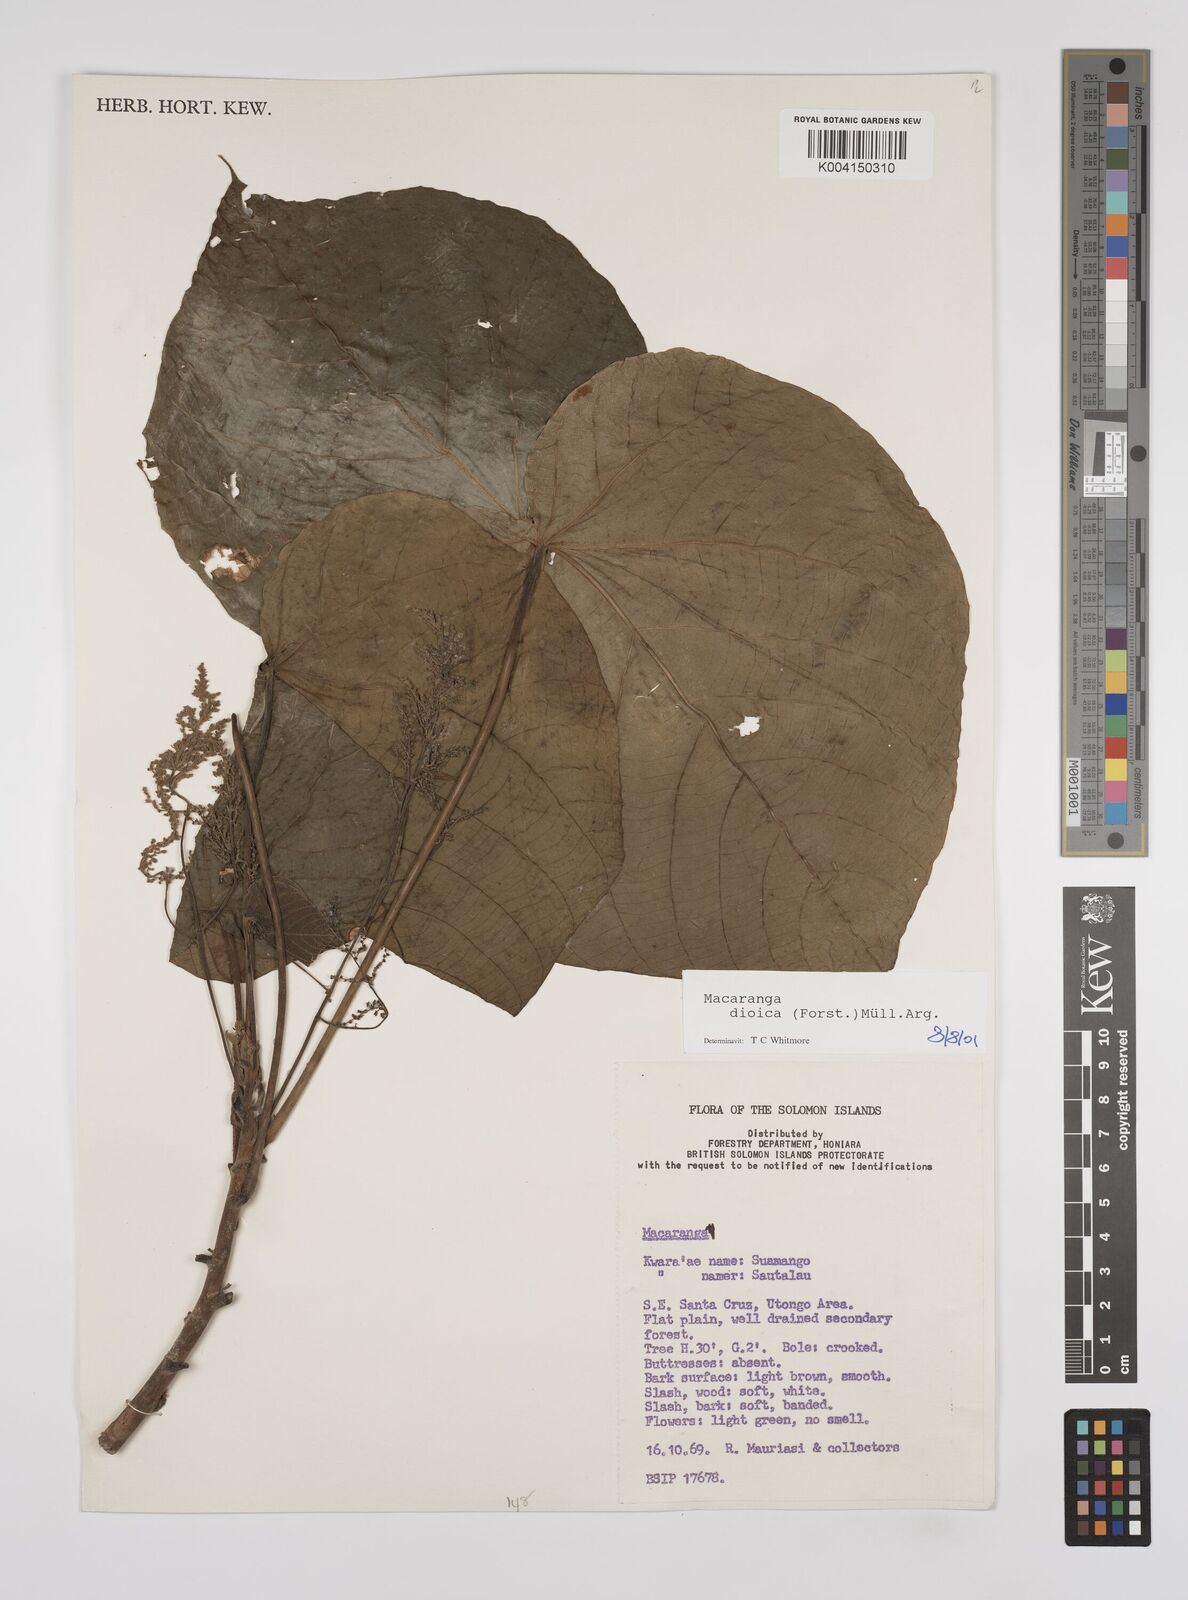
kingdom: Plantae
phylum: Tracheophyta
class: Magnoliopsida
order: Malpighiales
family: Euphorbiaceae
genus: Macaranga
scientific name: Macaranga dioica
